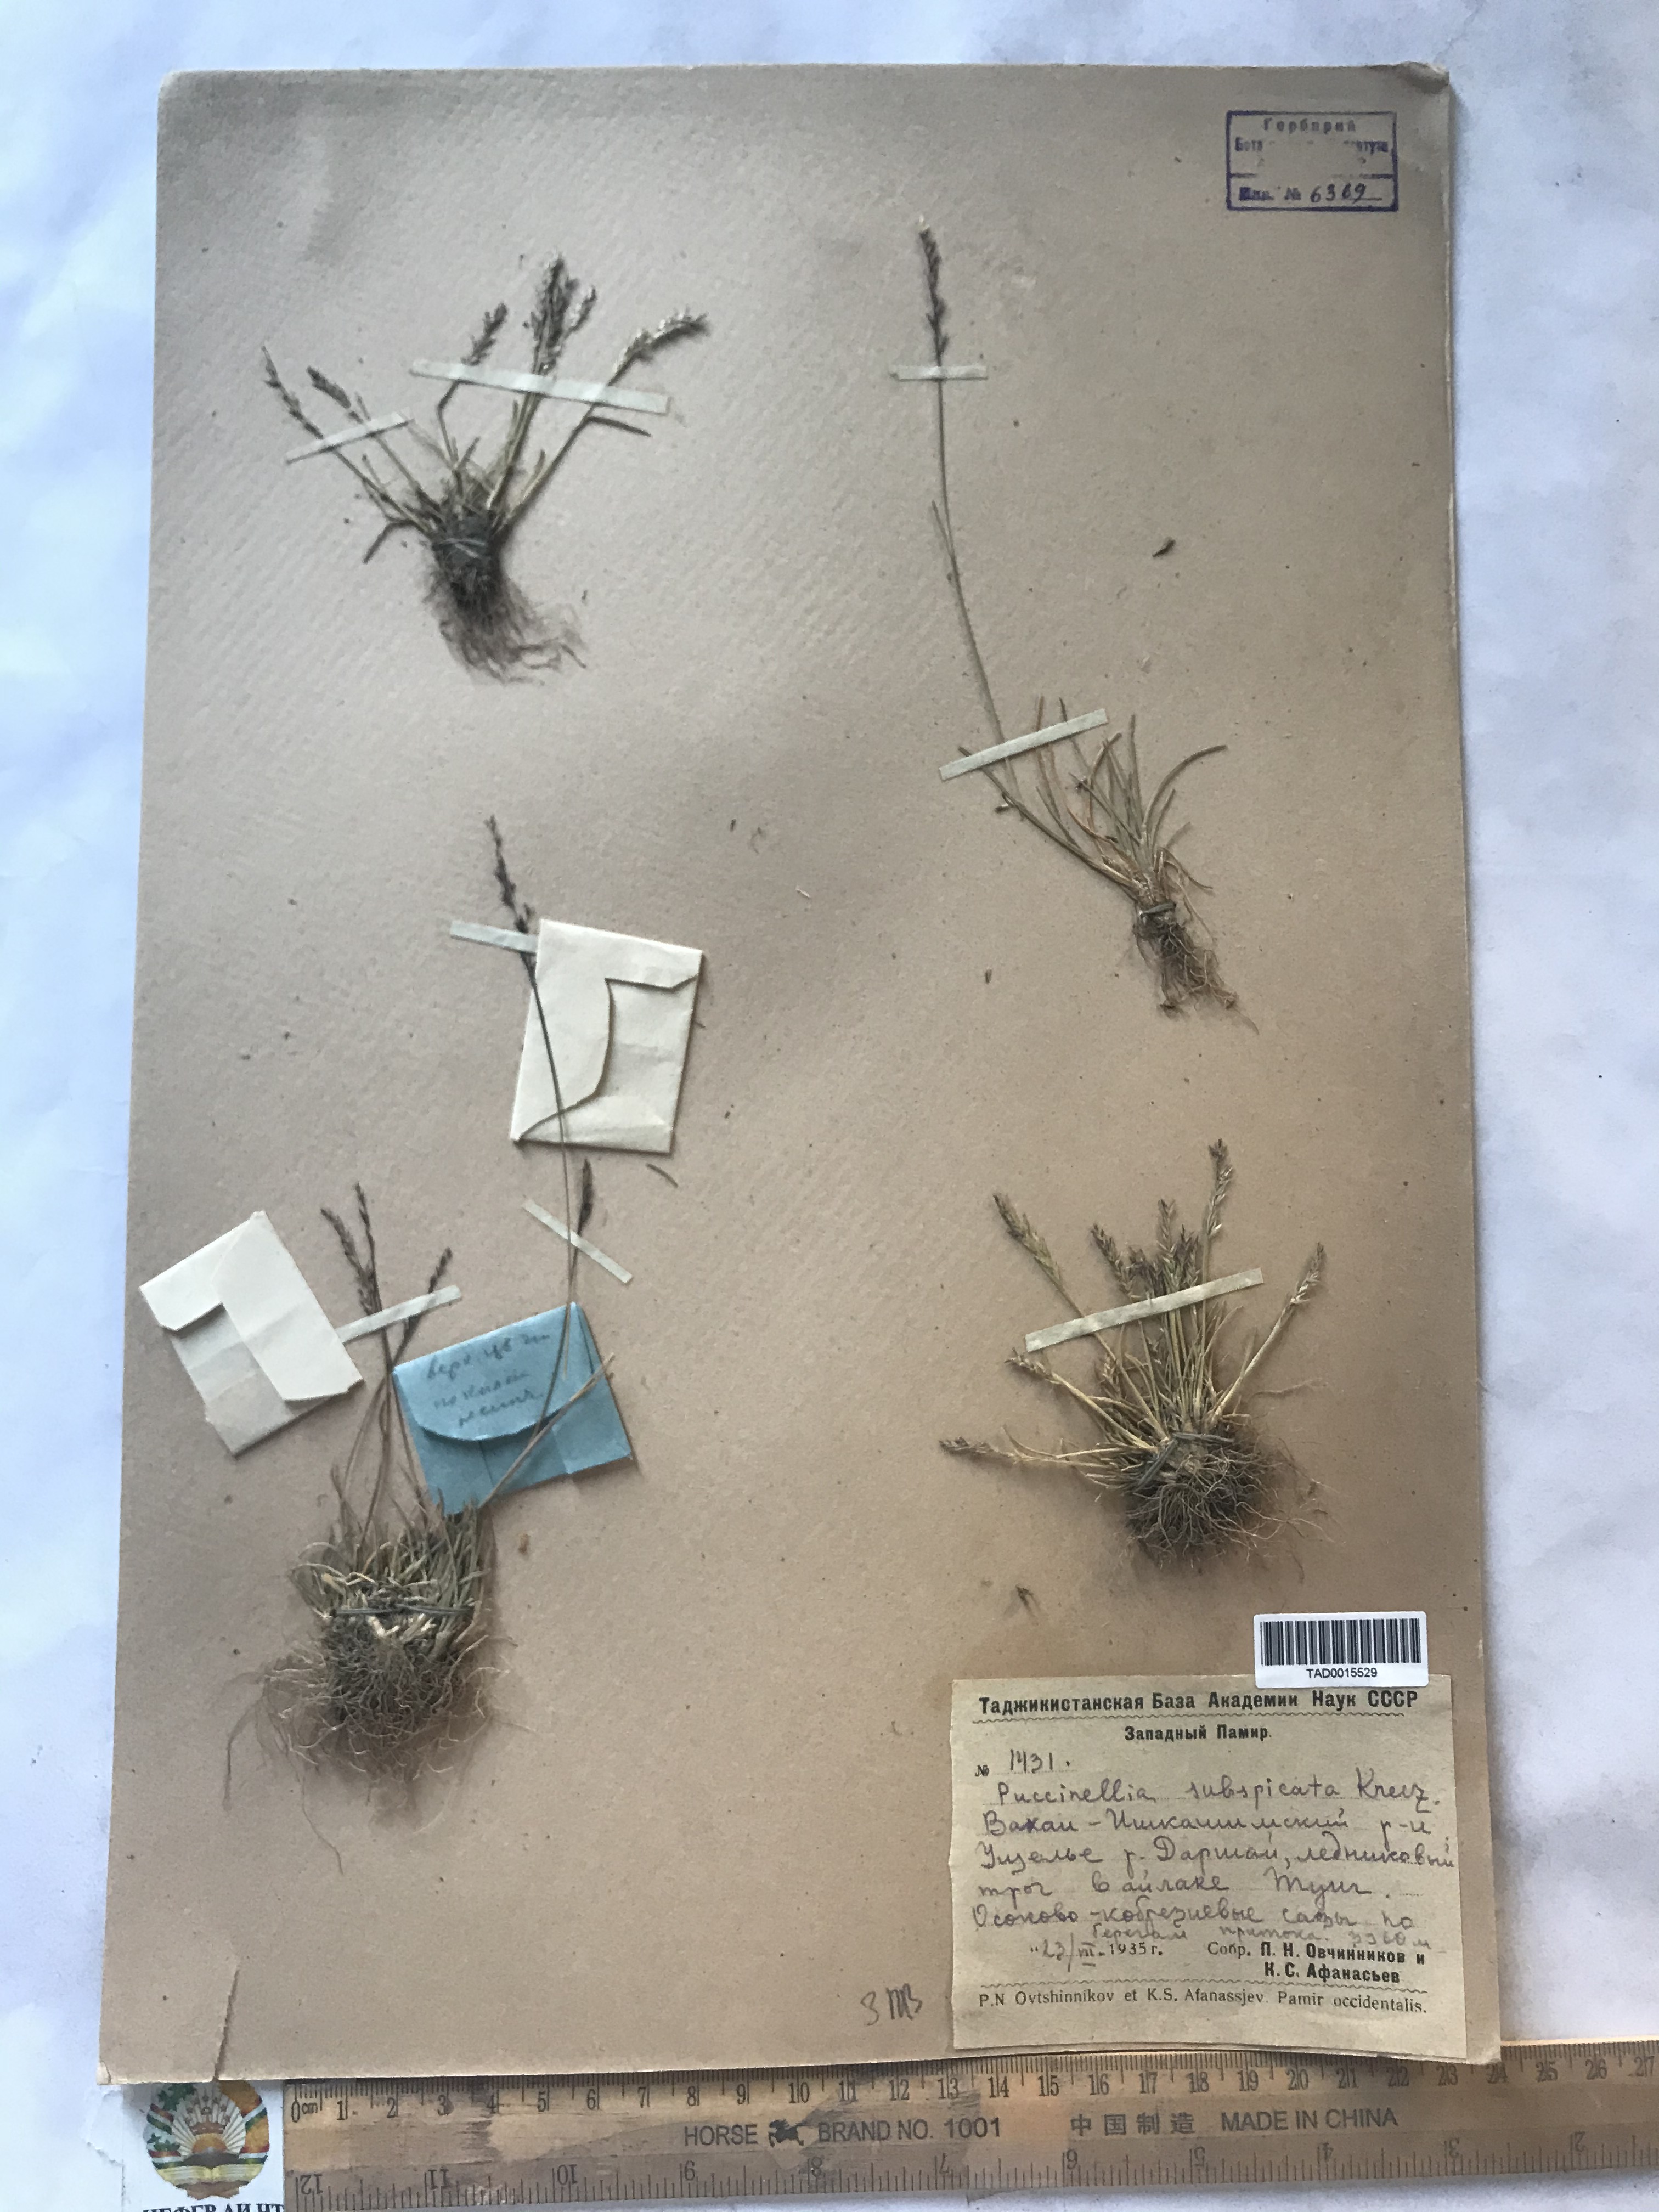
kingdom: Plantae
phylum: Tracheophyta
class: Liliopsida
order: Poales
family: Poaceae
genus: Puccinellia
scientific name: Puccinellia subspicata
